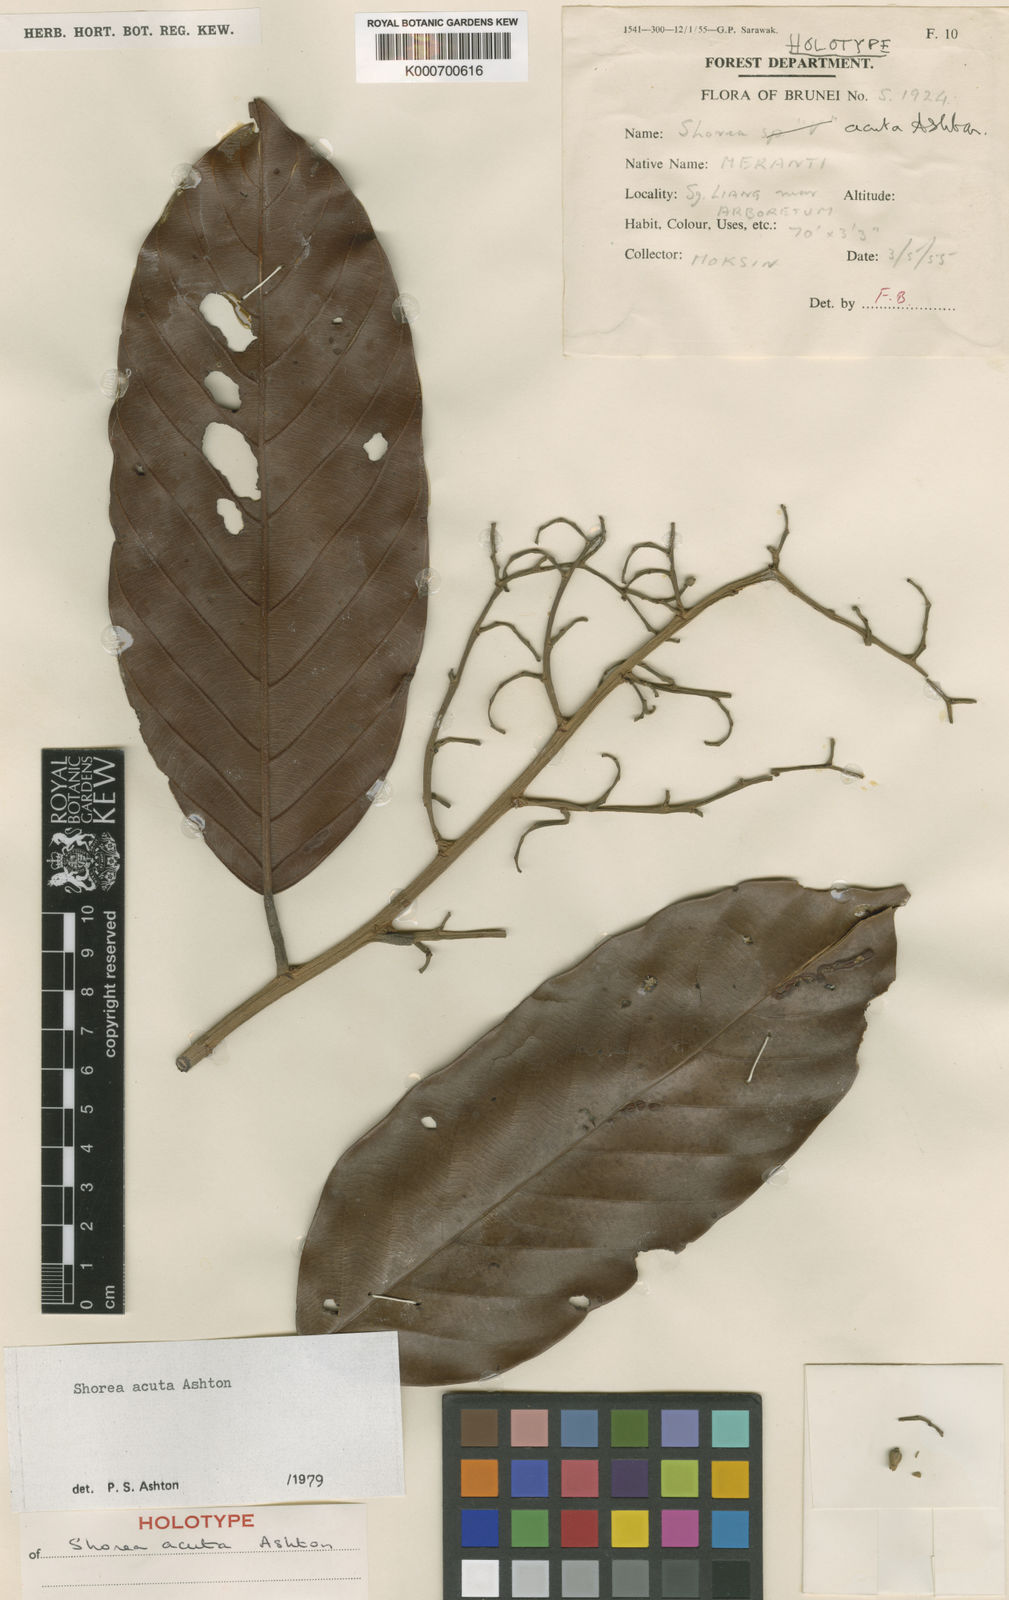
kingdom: Plantae
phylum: Tracheophyta
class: Magnoliopsida
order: Malvales
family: Dipterocarpaceae
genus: Shorea
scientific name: Shorea acuta
